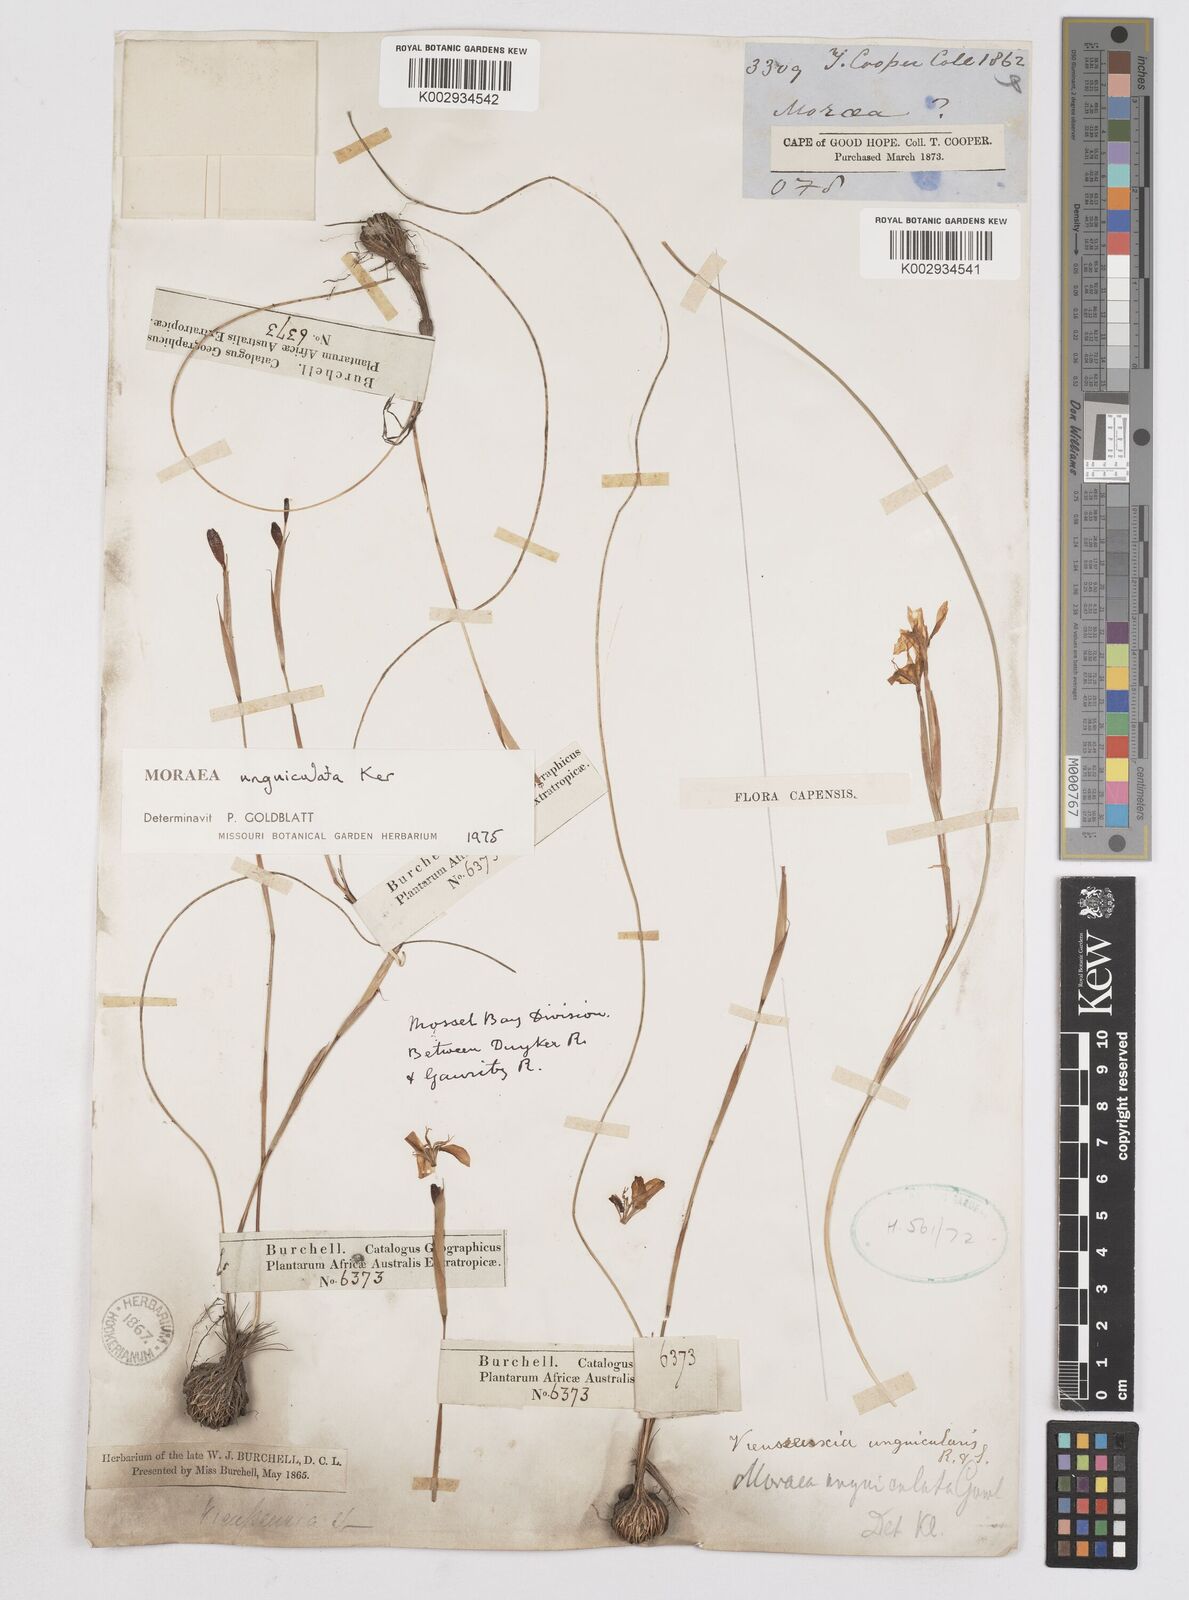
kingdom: Plantae
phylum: Tracheophyta
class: Liliopsida
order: Asparagales
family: Iridaceae
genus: Moraea
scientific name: Moraea unguiculata
